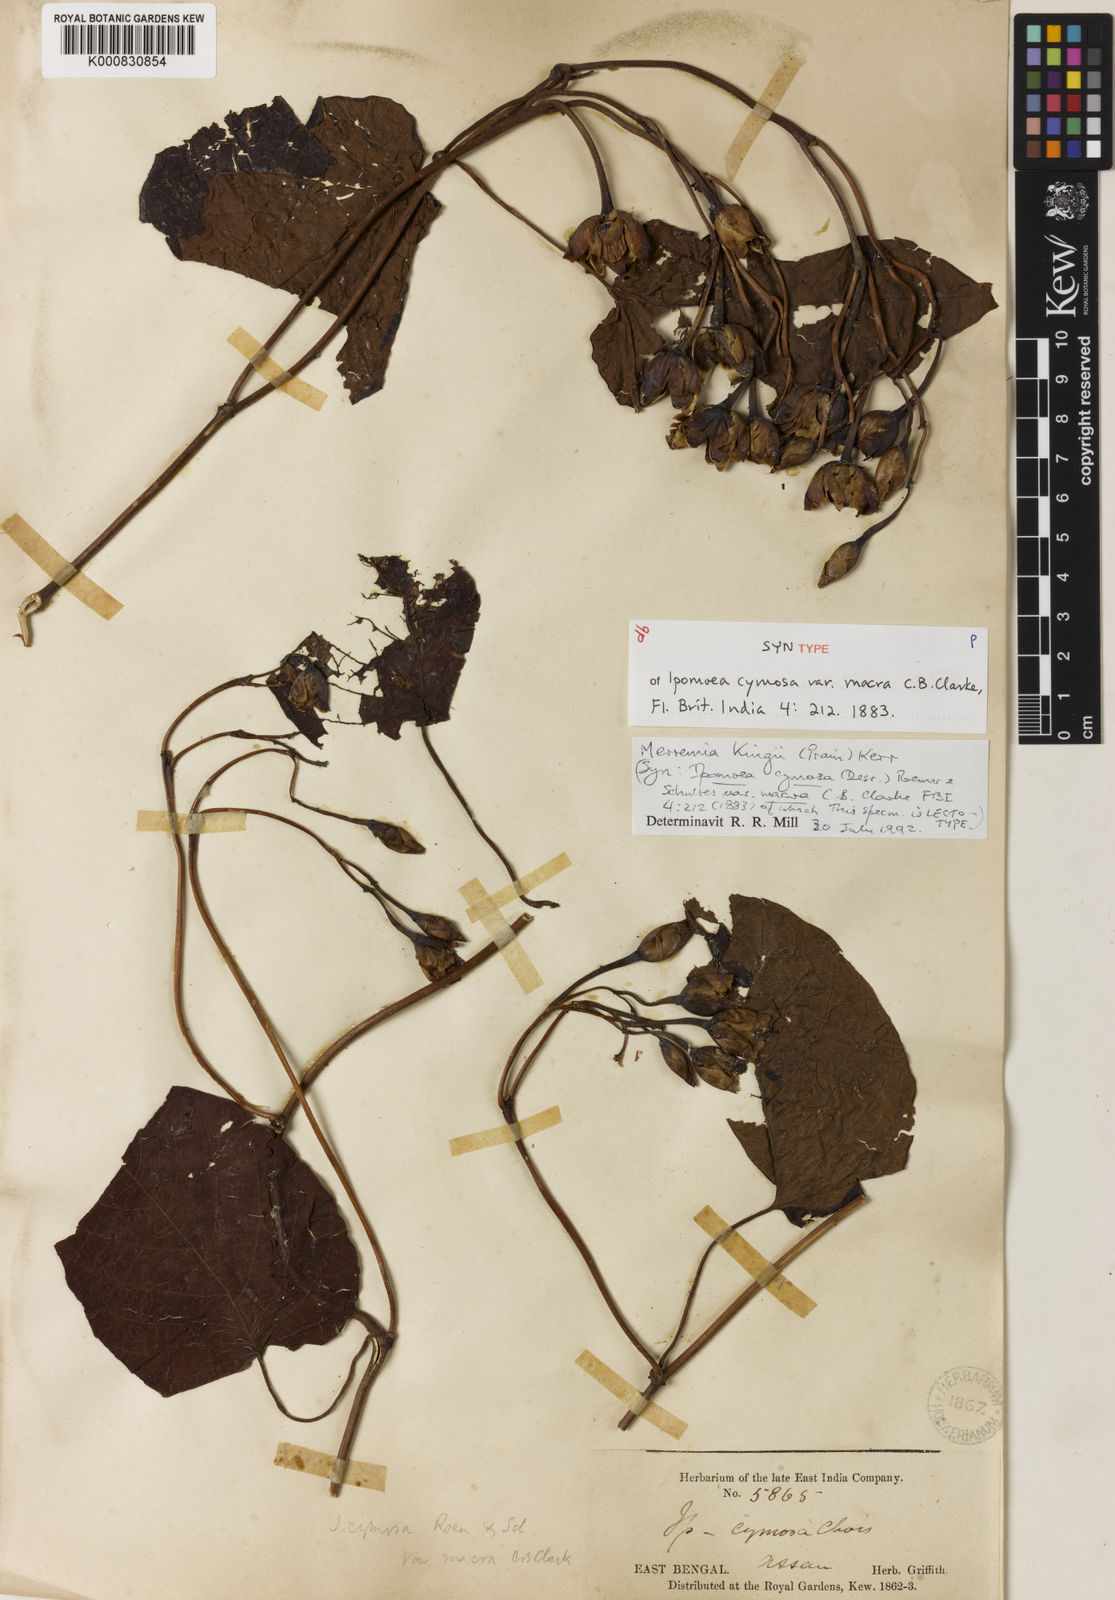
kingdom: Plantae
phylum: Tracheophyta
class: Magnoliopsida
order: Solanales
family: Convolvulaceae
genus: Camonea
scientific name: Camonea kingii
